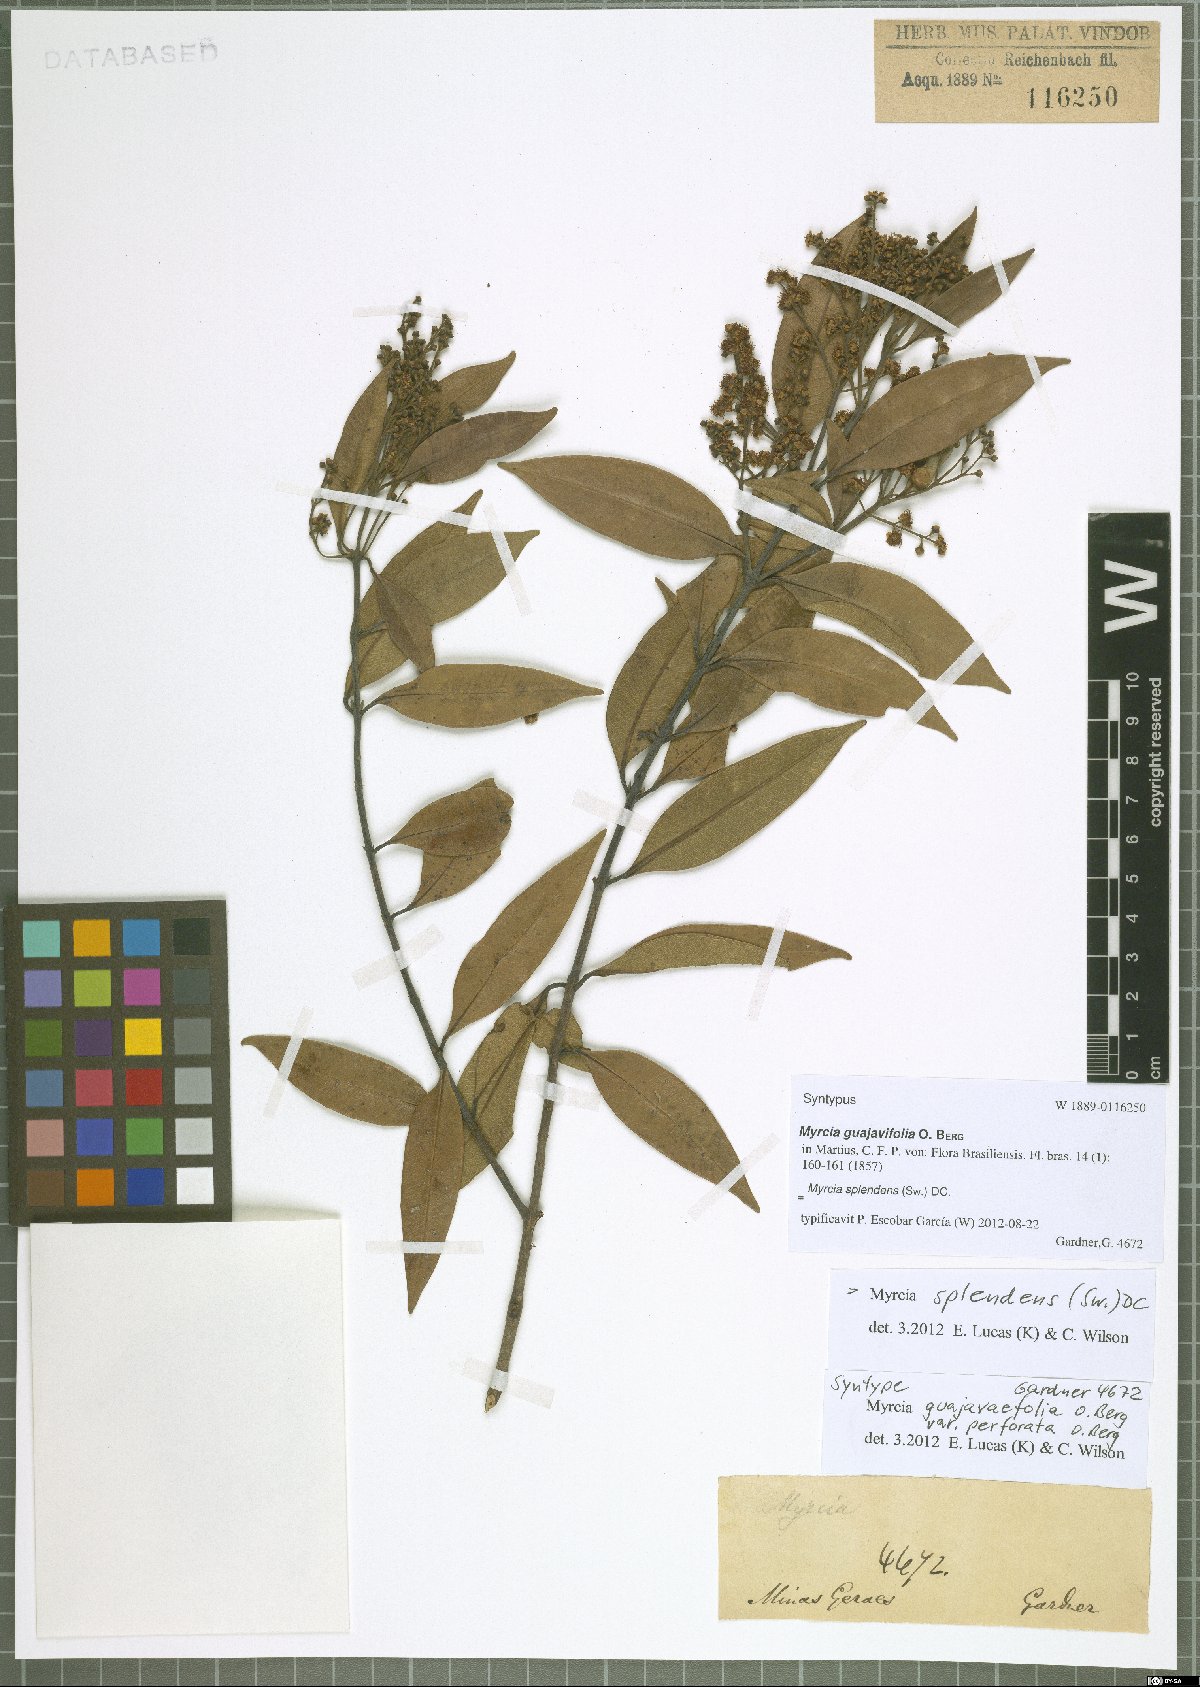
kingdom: Plantae
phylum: Tracheophyta
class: Magnoliopsida
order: Myrtales
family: Myrtaceae
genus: Myrcia
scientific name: Myrcia splendens
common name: Surinam cherry
